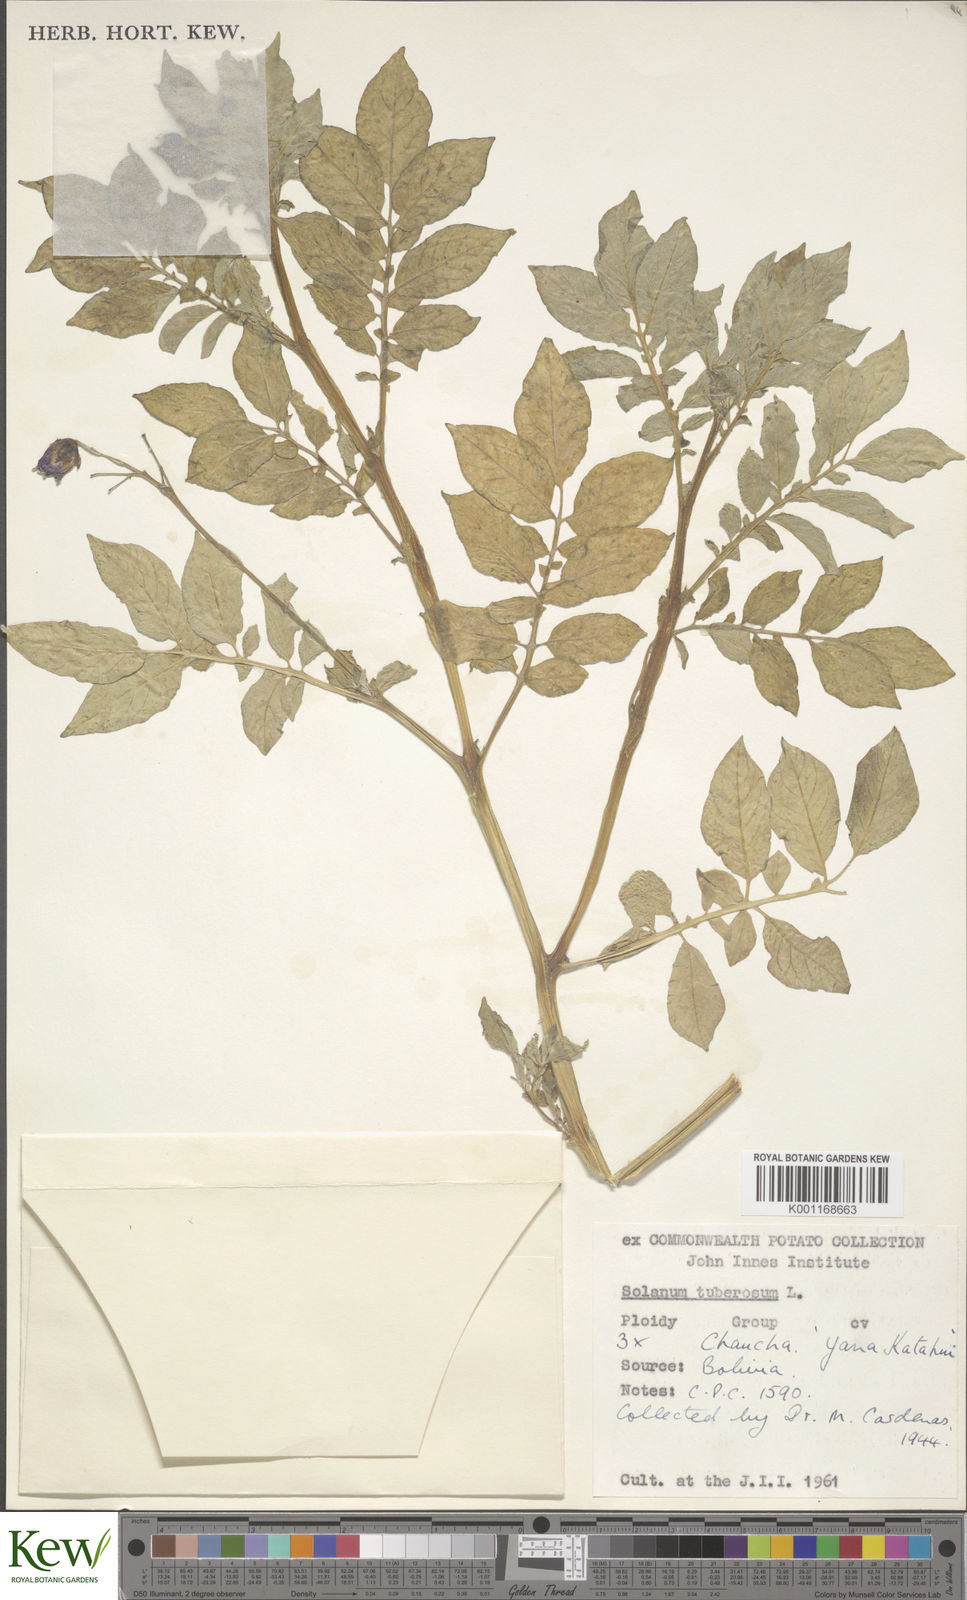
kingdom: Plantae
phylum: Tracheophyta
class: Magnoliopsida
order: Solanales
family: Solanaceae
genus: Solanum
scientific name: Solanum chaucha
